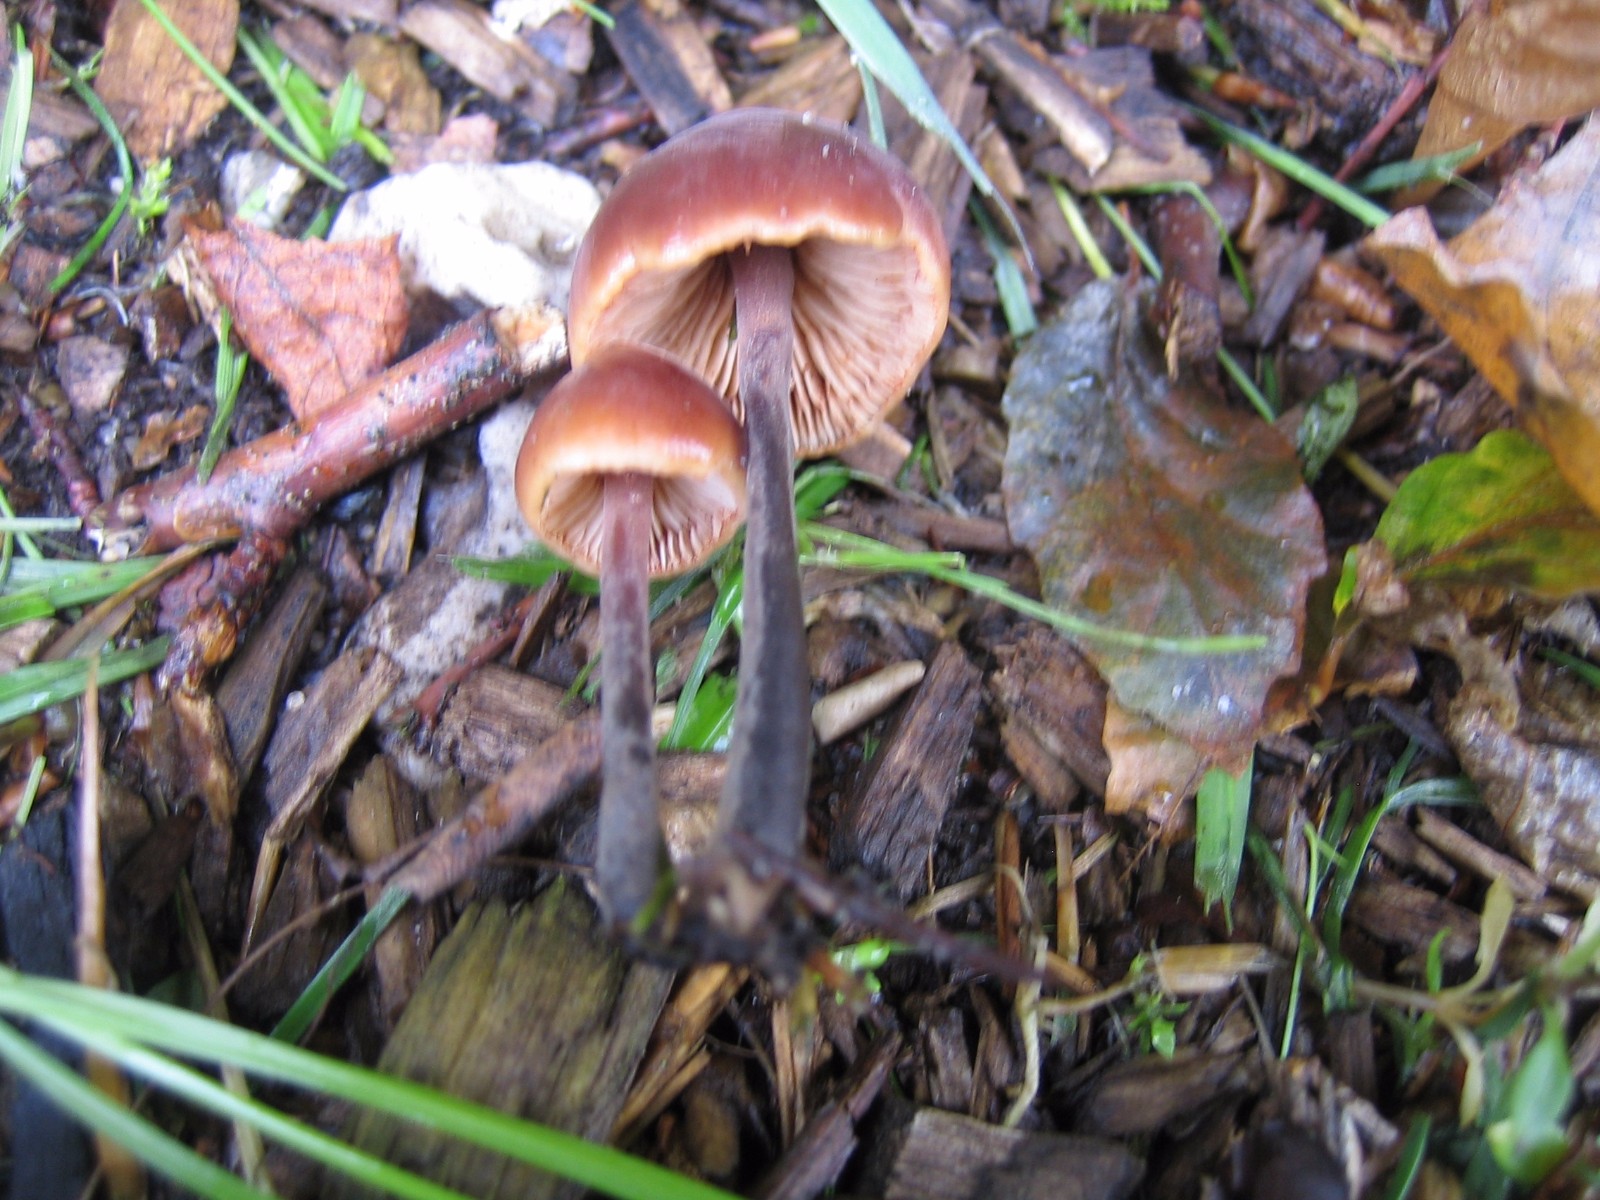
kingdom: Fungi
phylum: Basidiomycota
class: Agaricomycetes
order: Agaricales
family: Macrocystidiaceae
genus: Macrocystidia
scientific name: Macrocystidia cucumis
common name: agurkehat
